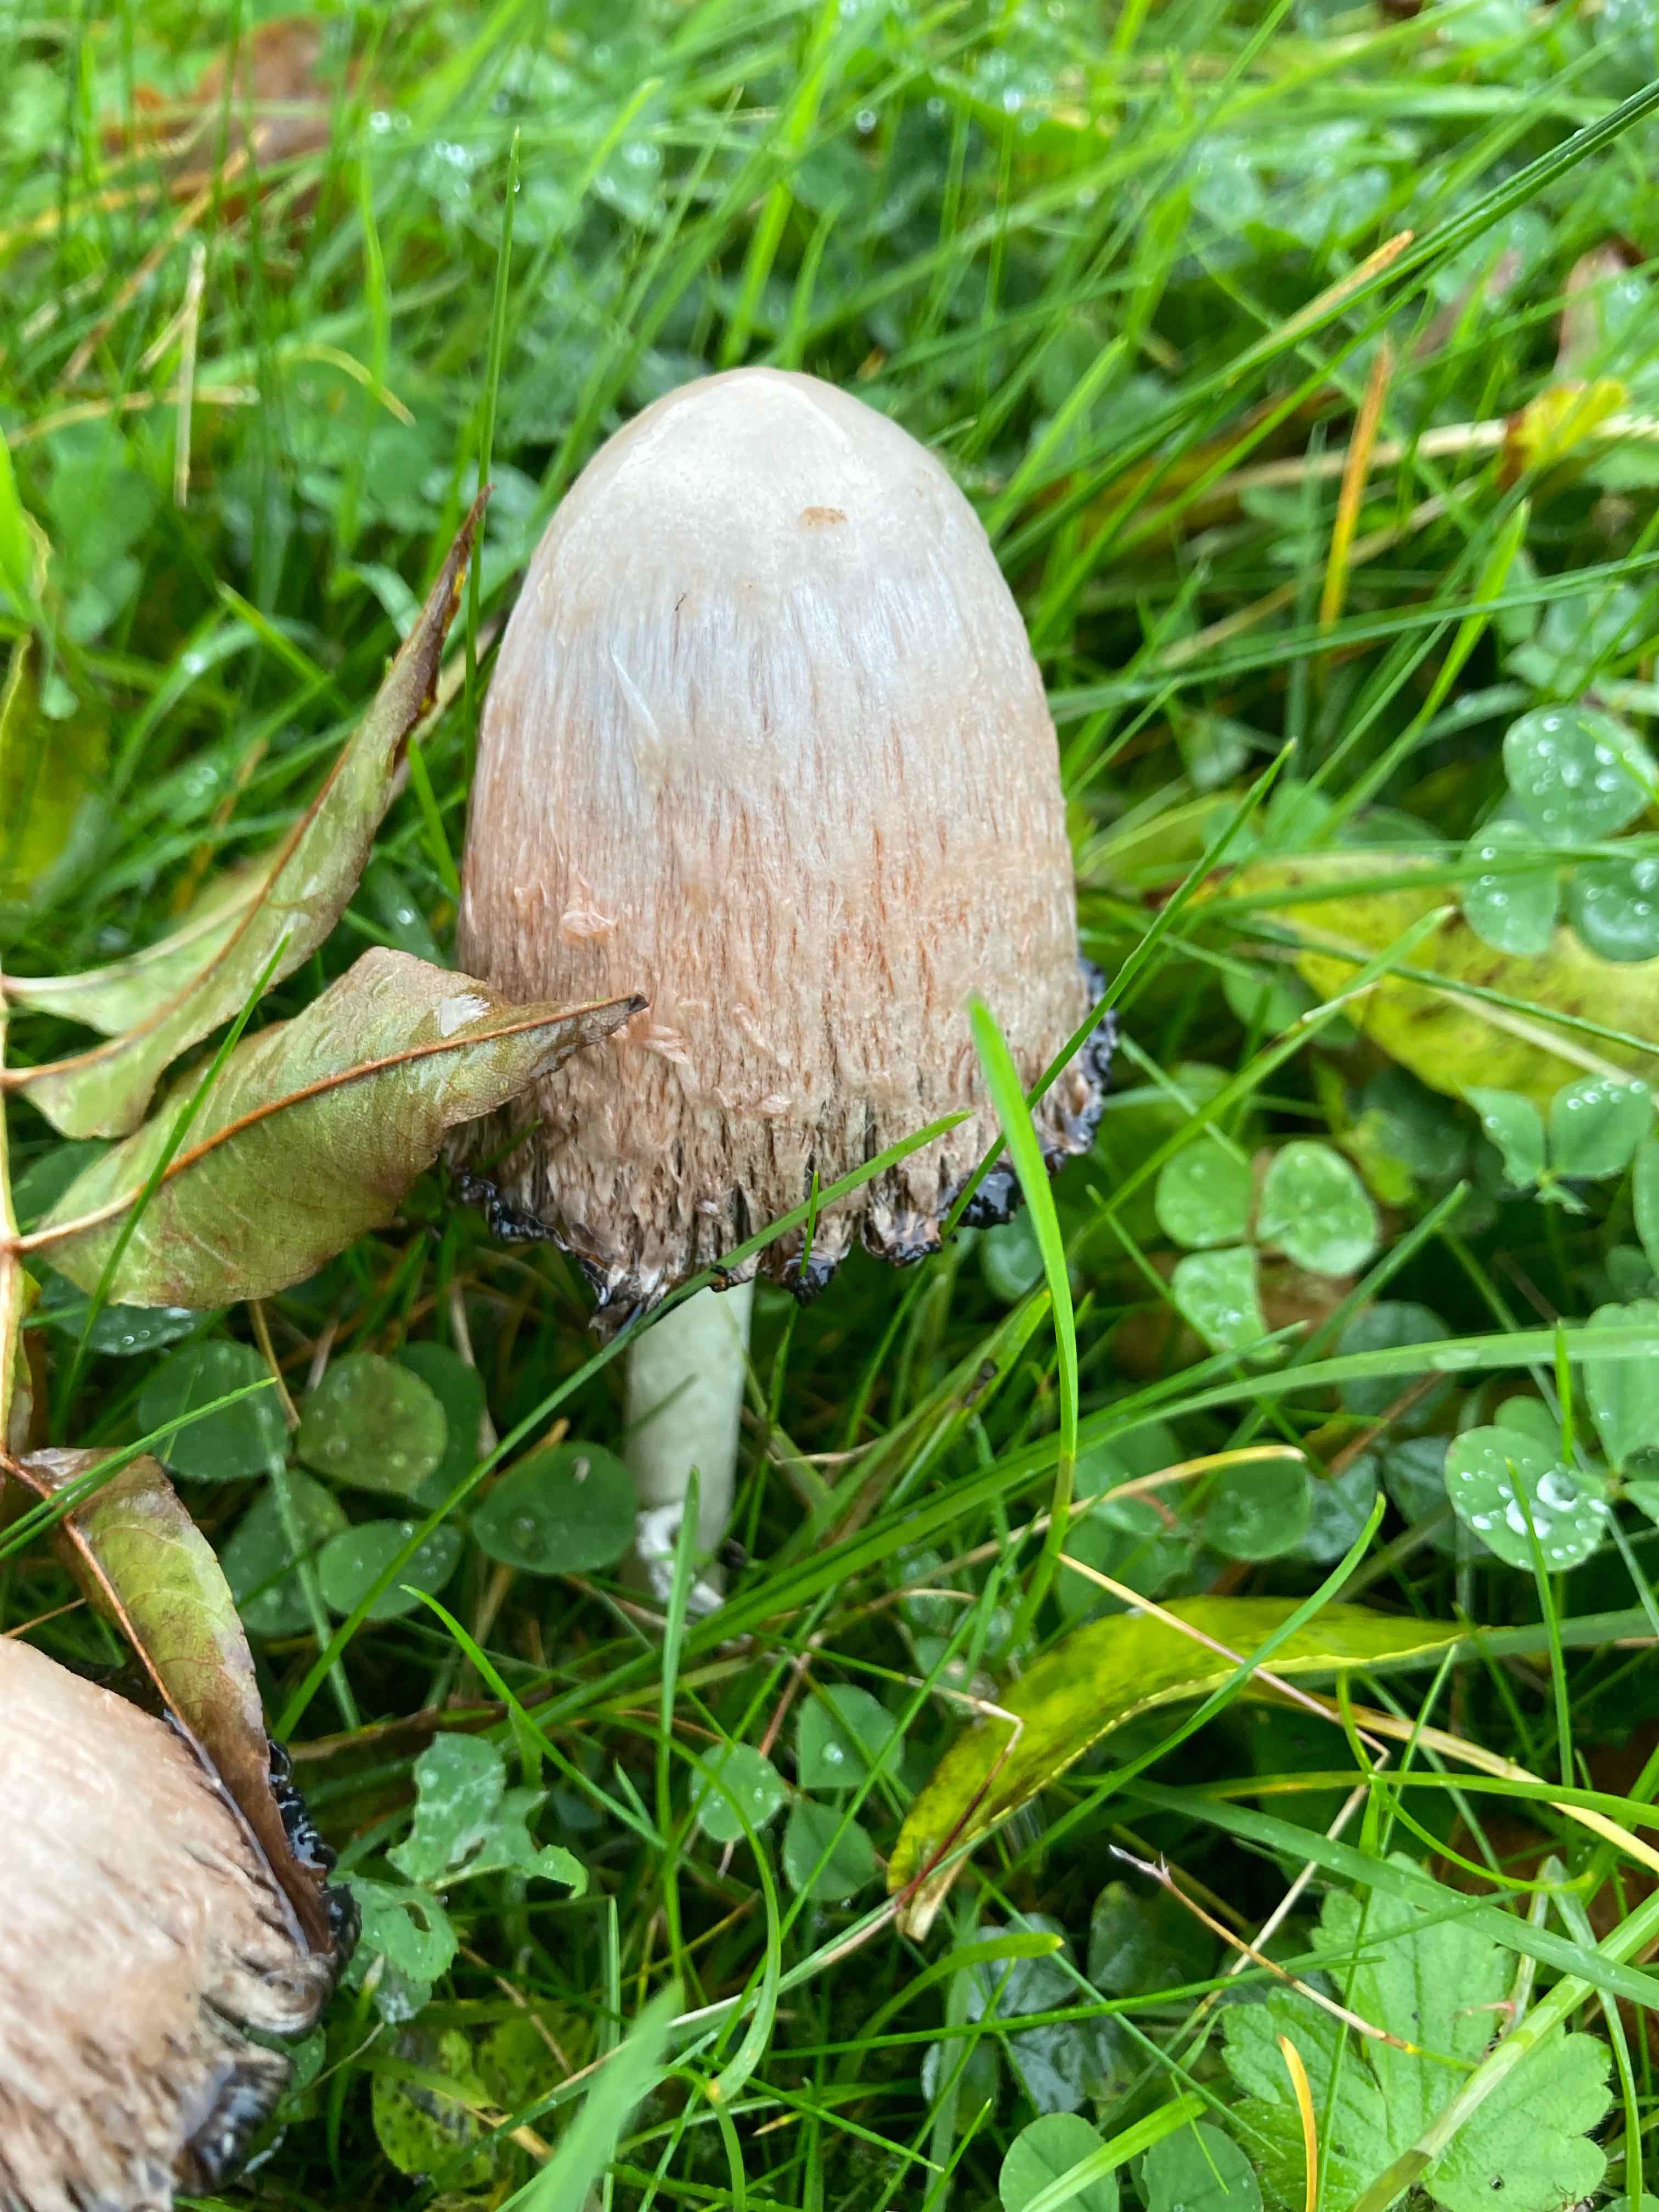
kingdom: Fungi
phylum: Basidiomycota
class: Agaricomycetes
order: Agaricales
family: Agaricaceae
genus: Coprinus
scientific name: Coprinus comatus
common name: stor parykhat
